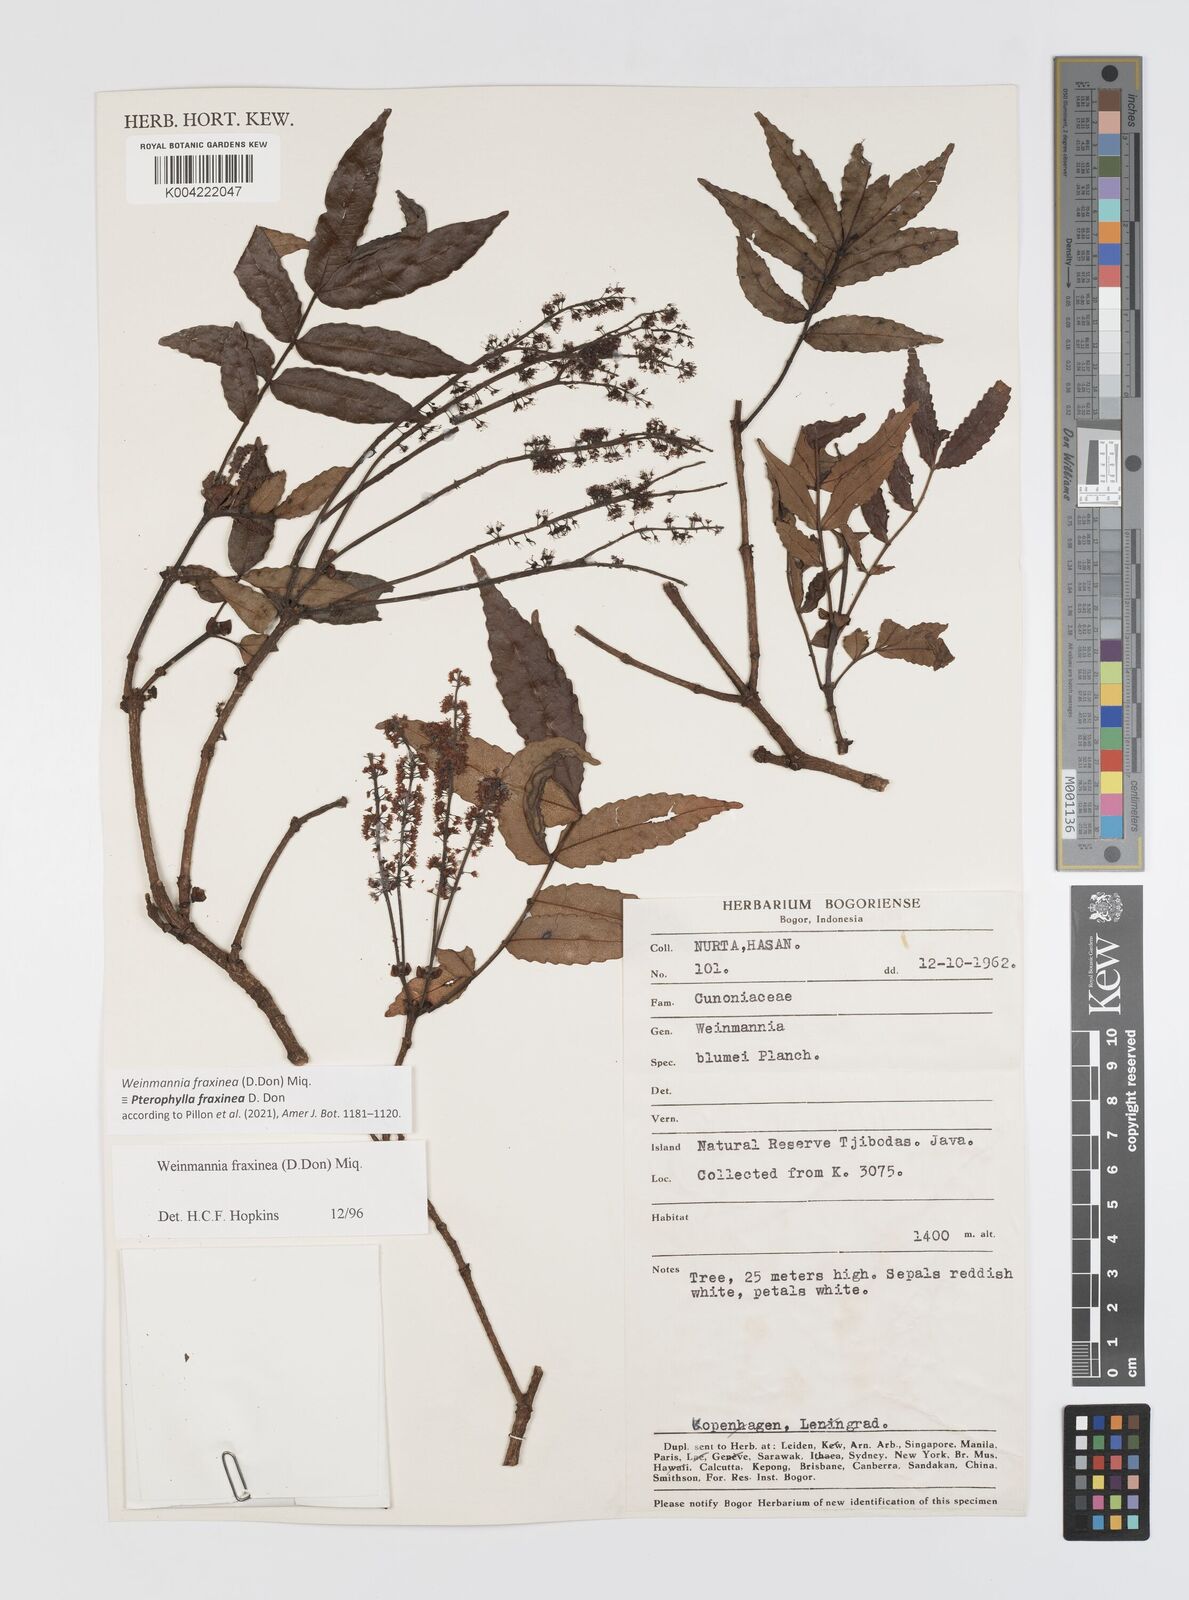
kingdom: Plantae
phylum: Tracheophyta
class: Magnoliopsida
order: Oxalidales
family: Cunoniaceae
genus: Pterophylla
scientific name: Pterophylla fraxinea
